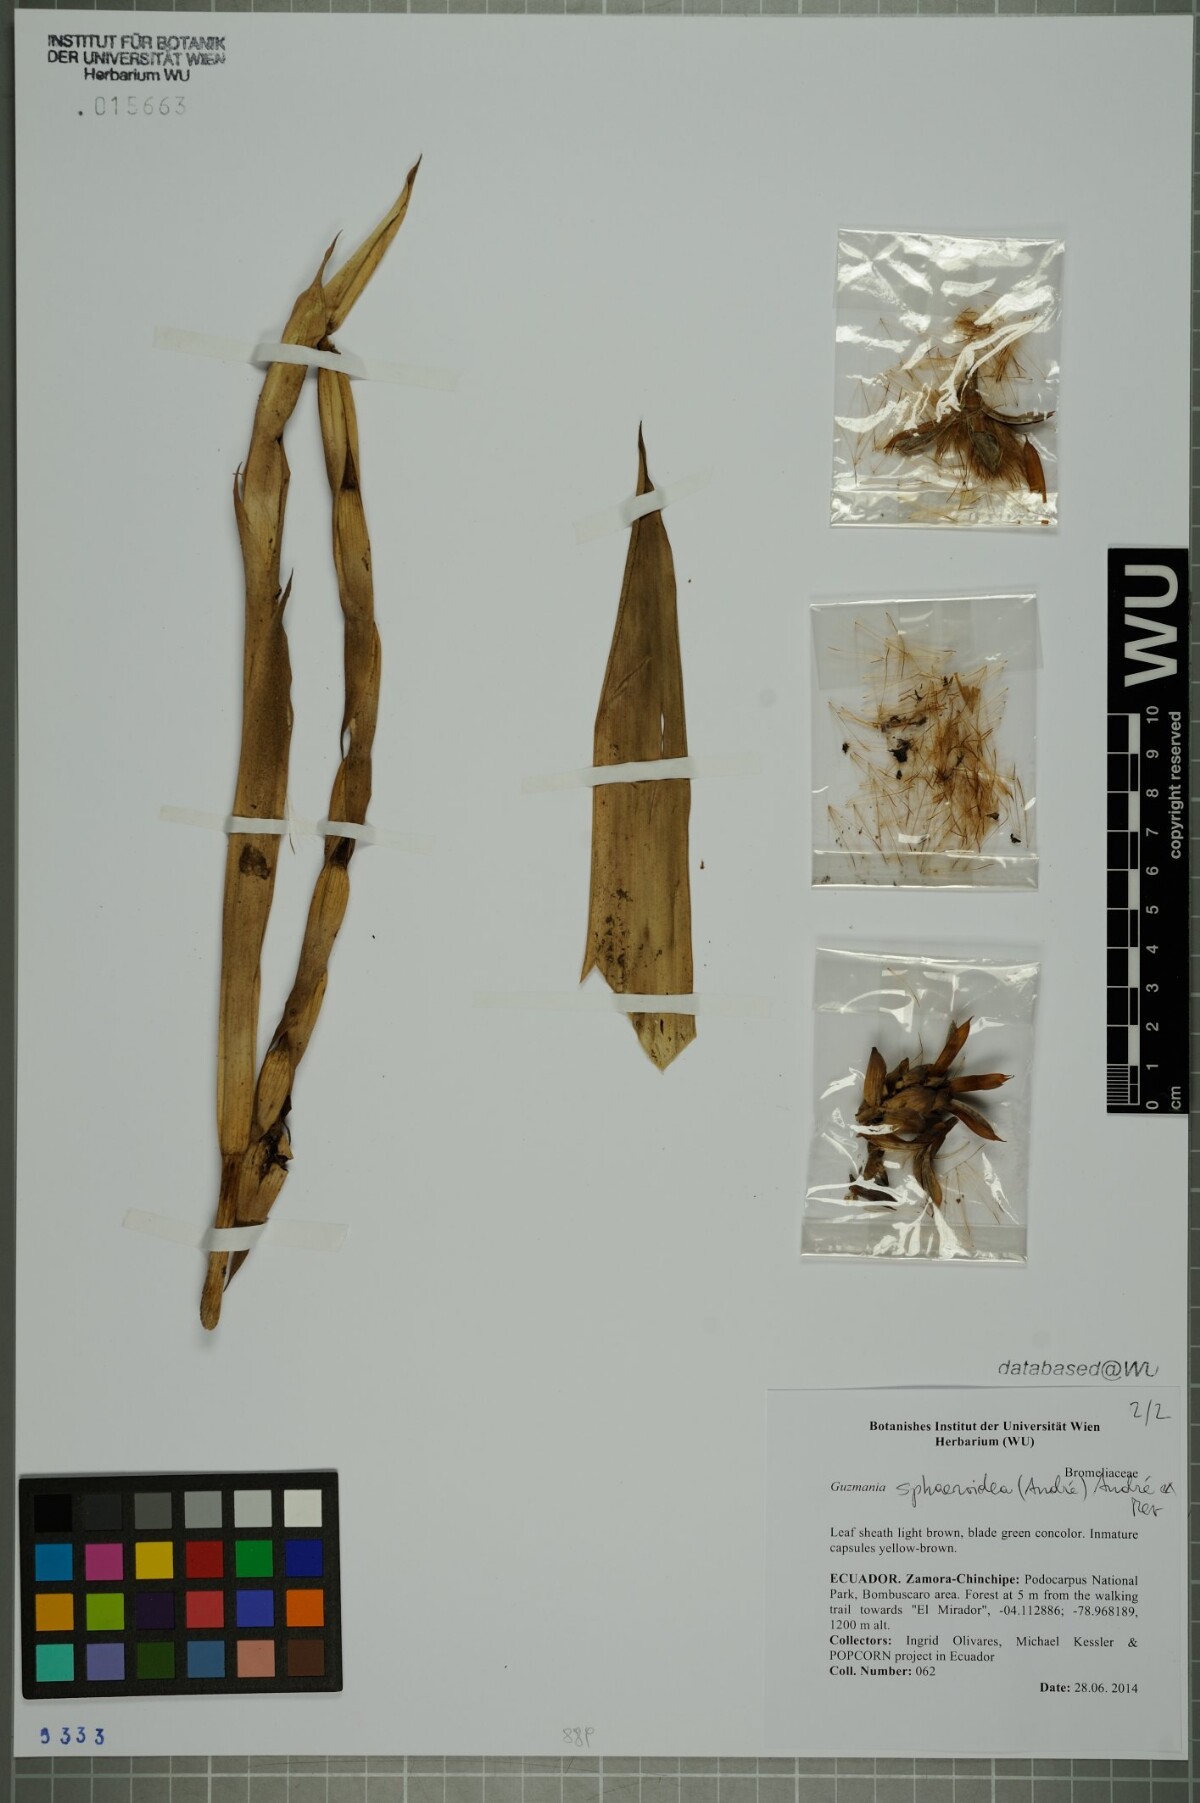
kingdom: Plantae
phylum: Tracheophyta
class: Liliopsida
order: Poales
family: Bromeliaceae
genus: Guzmania
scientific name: Guzmania sphaeroidea
